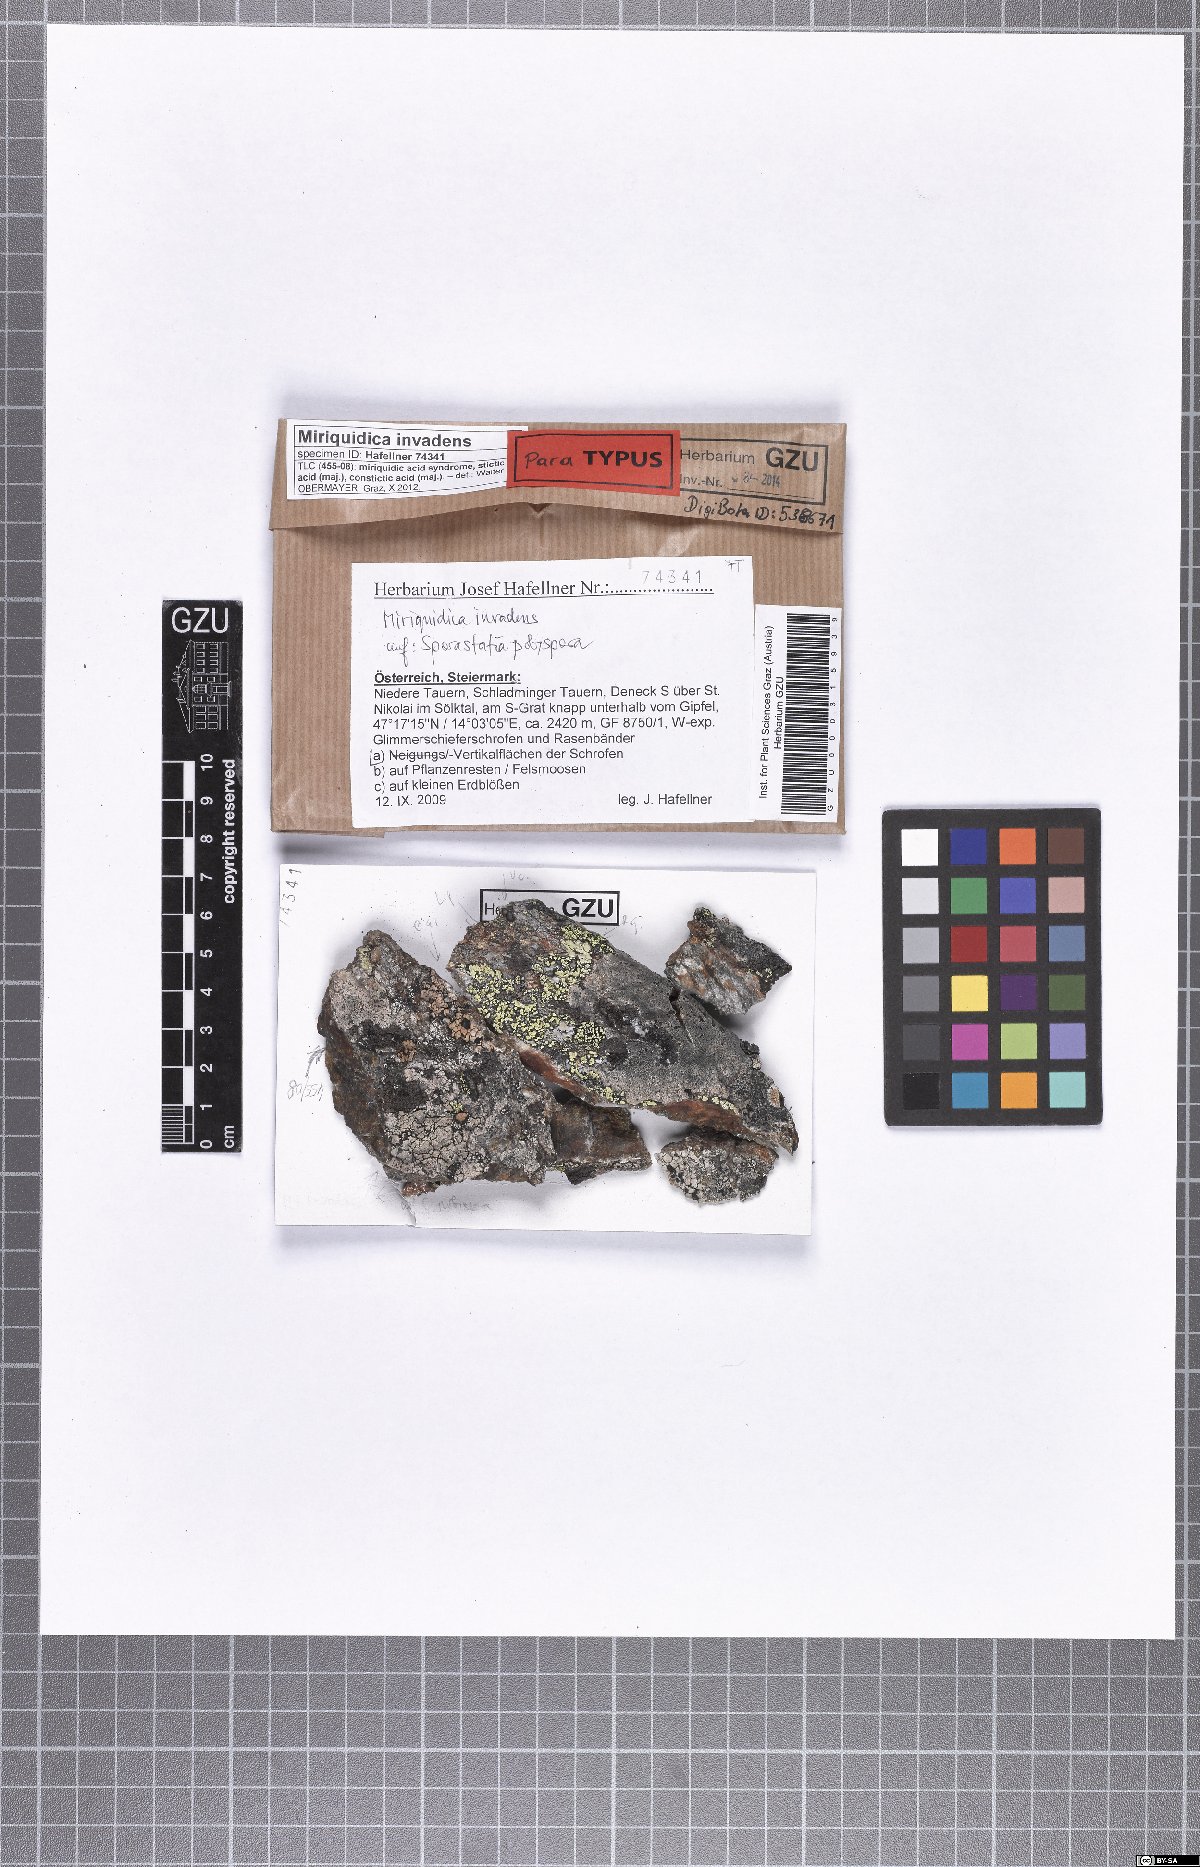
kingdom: Fungi
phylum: Ascomycota
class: Lecanoromycetes
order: Lecanorales
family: Lecanoraceae
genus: Miriquidica
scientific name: Miriquidica invadens
